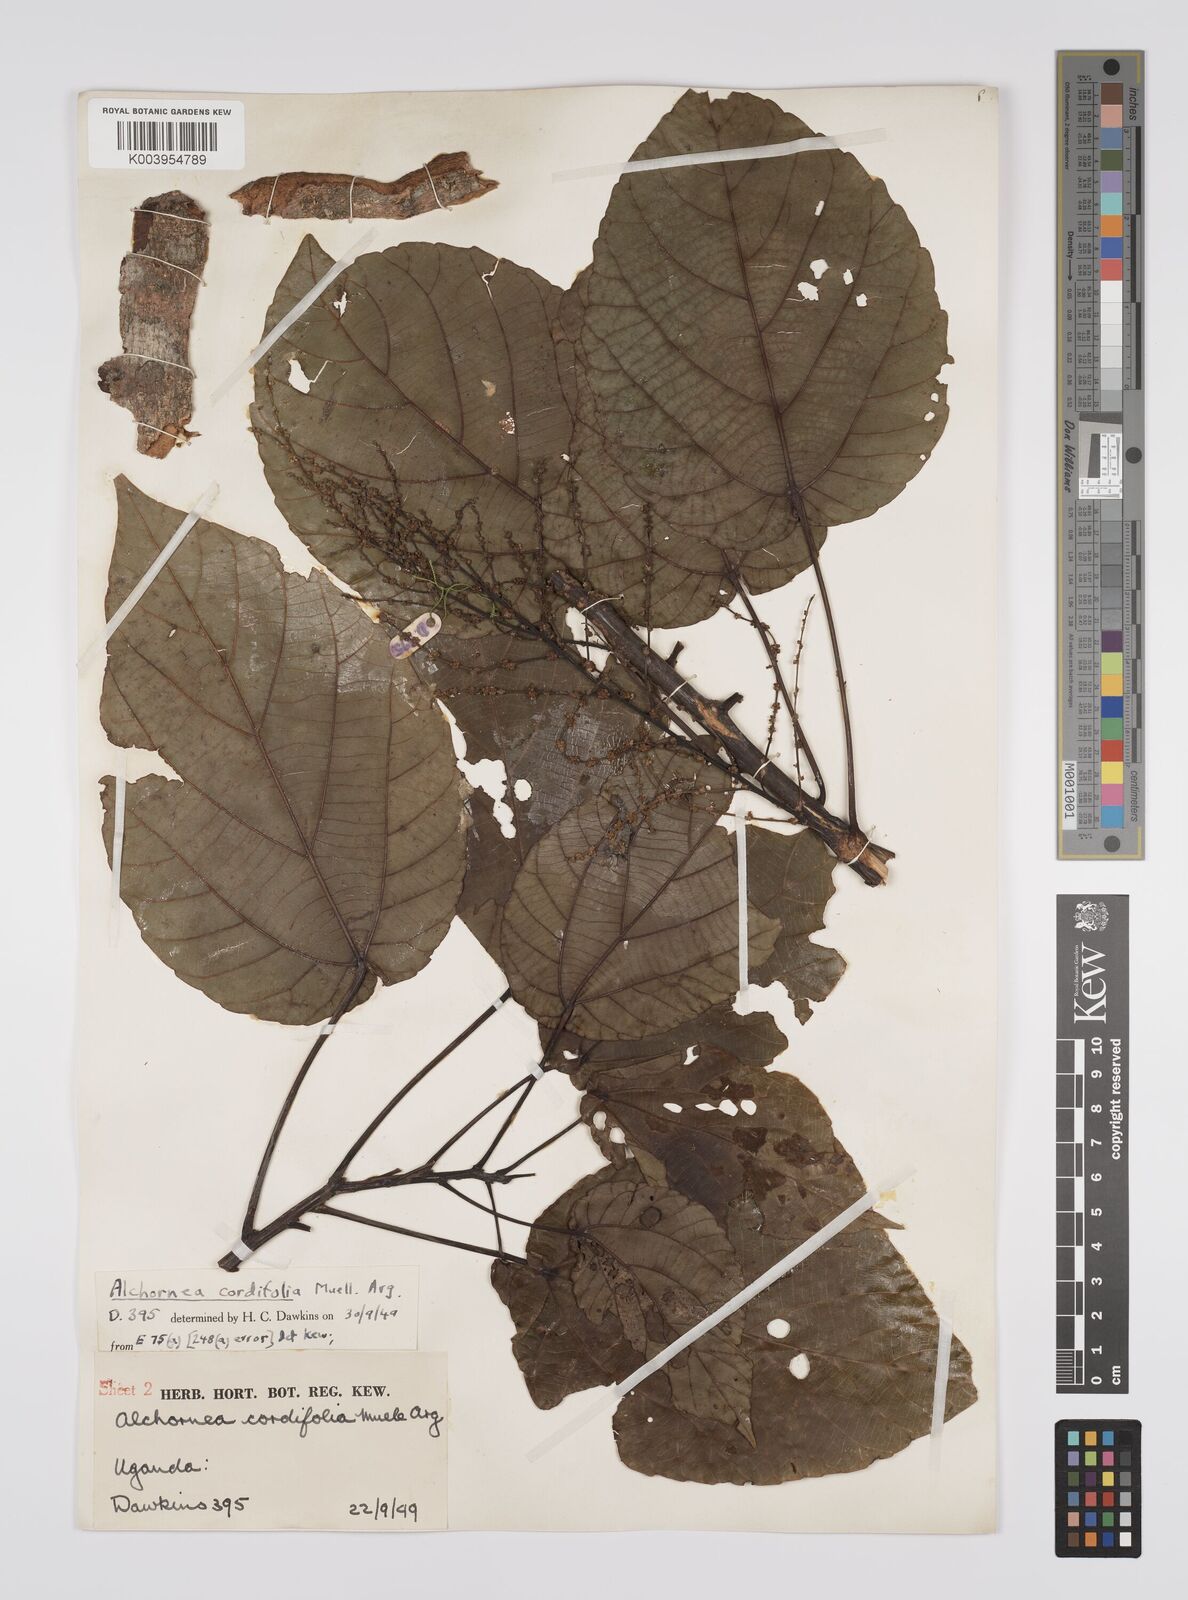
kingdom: Plantae
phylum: Tracheophyta
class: Magnoliopsida
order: Malpighiales
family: Euphorbiaceae
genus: Alchornea
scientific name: Alchornea cordifolia
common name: Christmasbush
